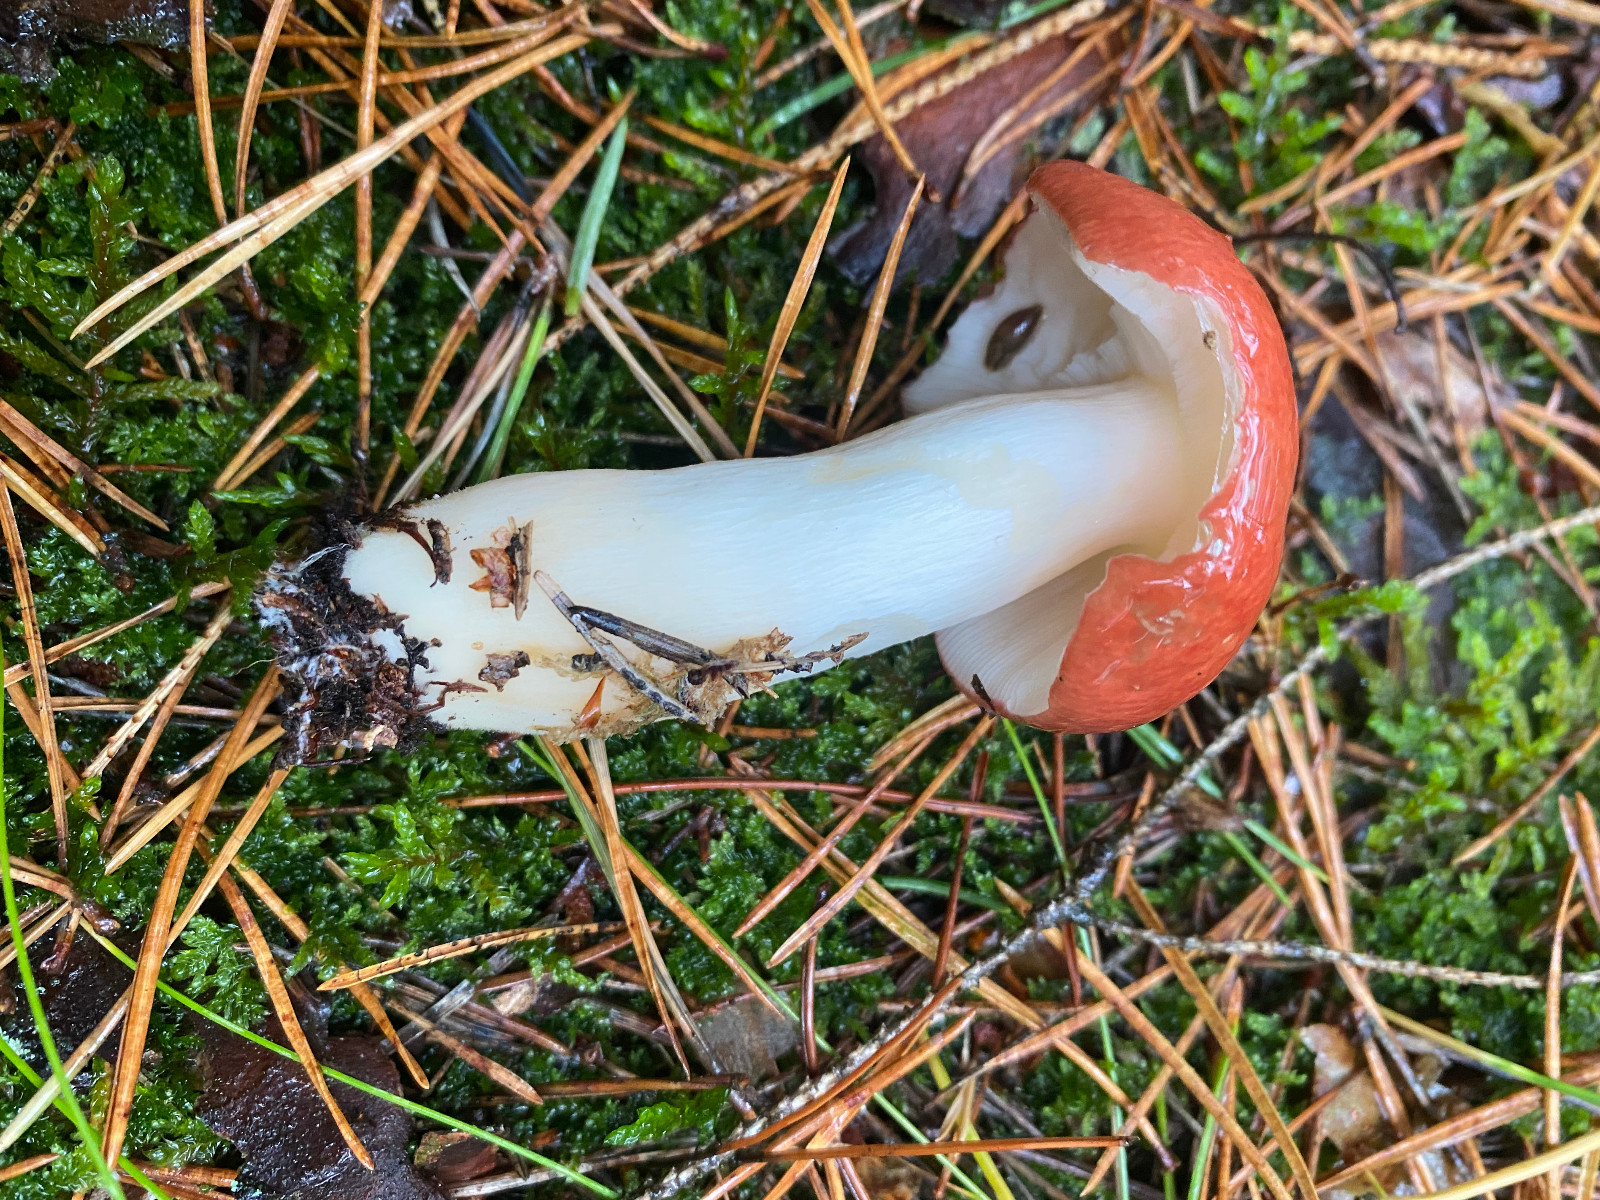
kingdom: Fungi
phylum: Basidiomycota
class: Agaricomycetes
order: Russulales
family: Russulaceae
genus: Russula
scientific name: Russula paludosa
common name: prægtig skørhat
